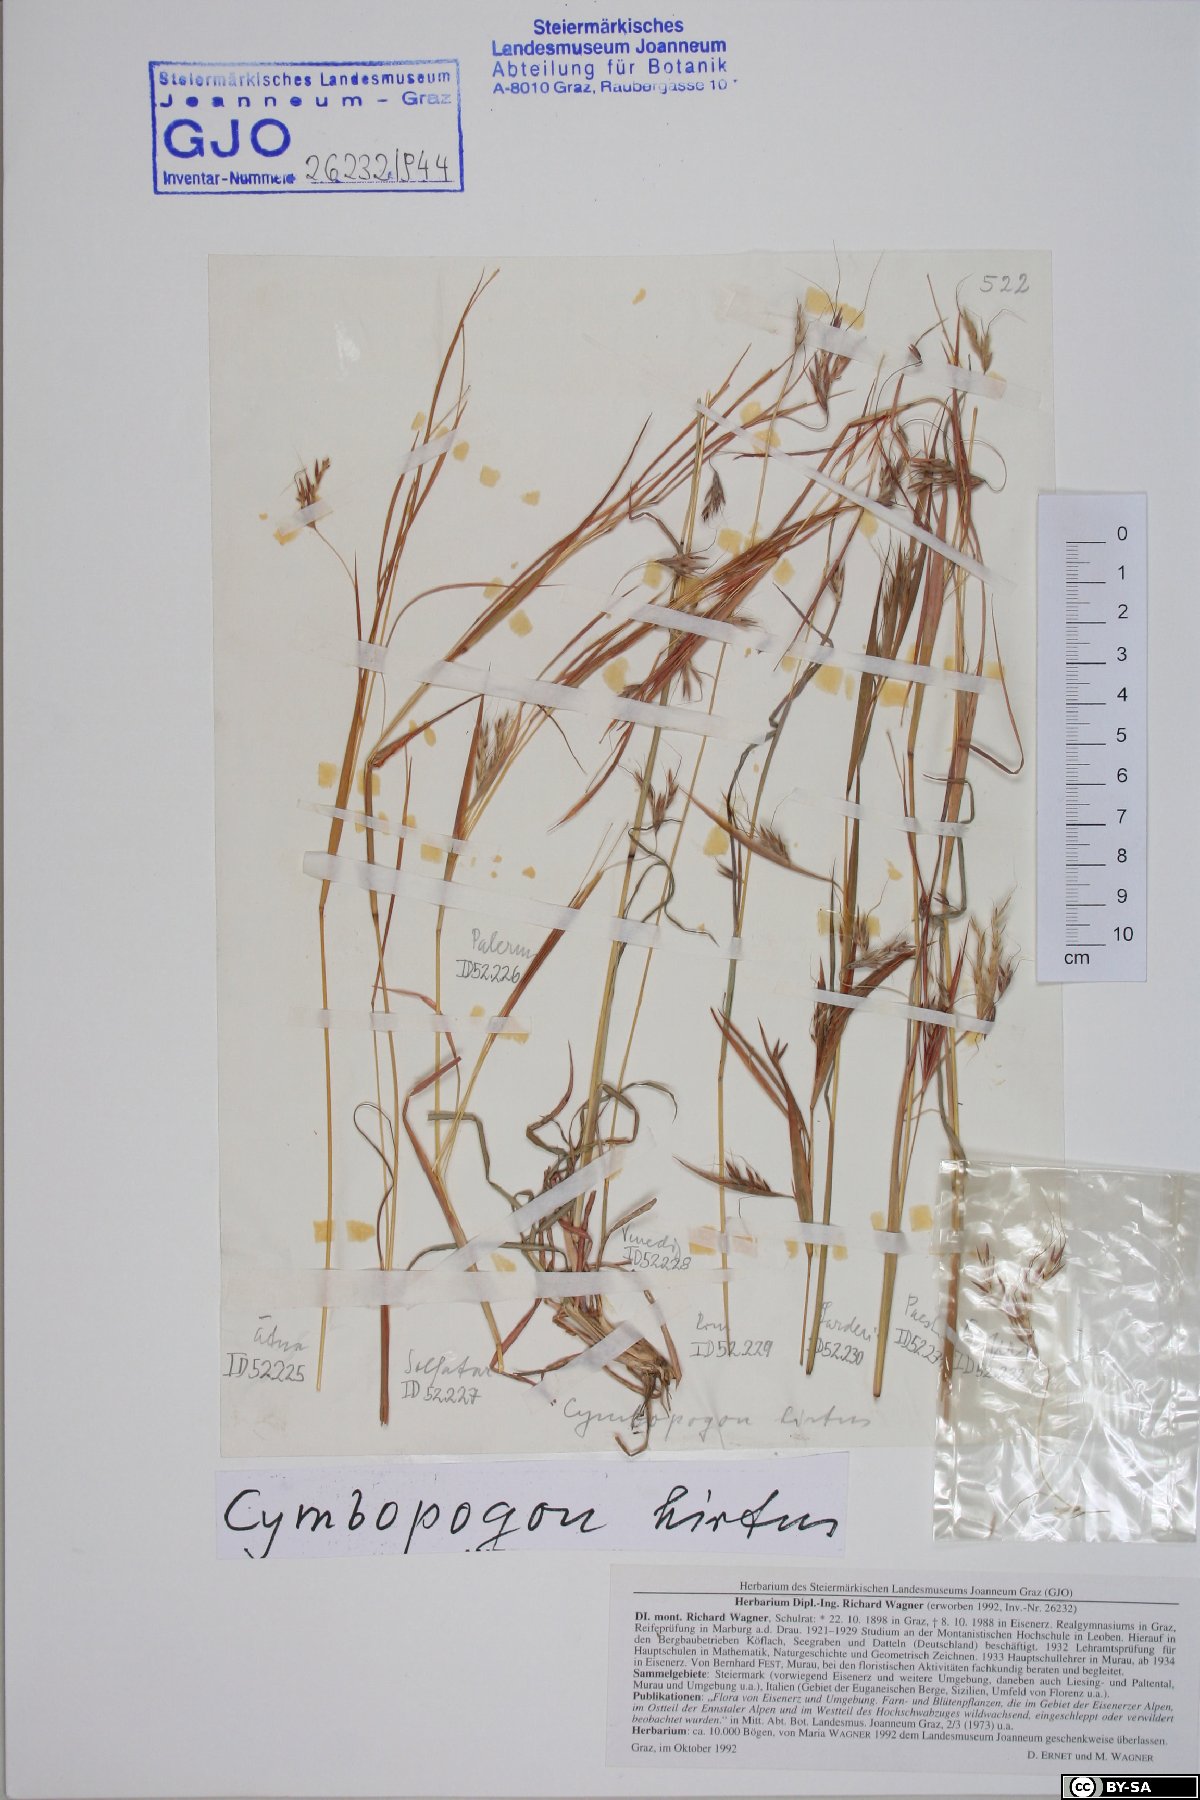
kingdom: Plantae
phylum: Tracheophyta
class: Liliopsida
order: Poales
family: Poaceae
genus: Hyparrhenia
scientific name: Hyparrhenia hirta
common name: Thatching grass
